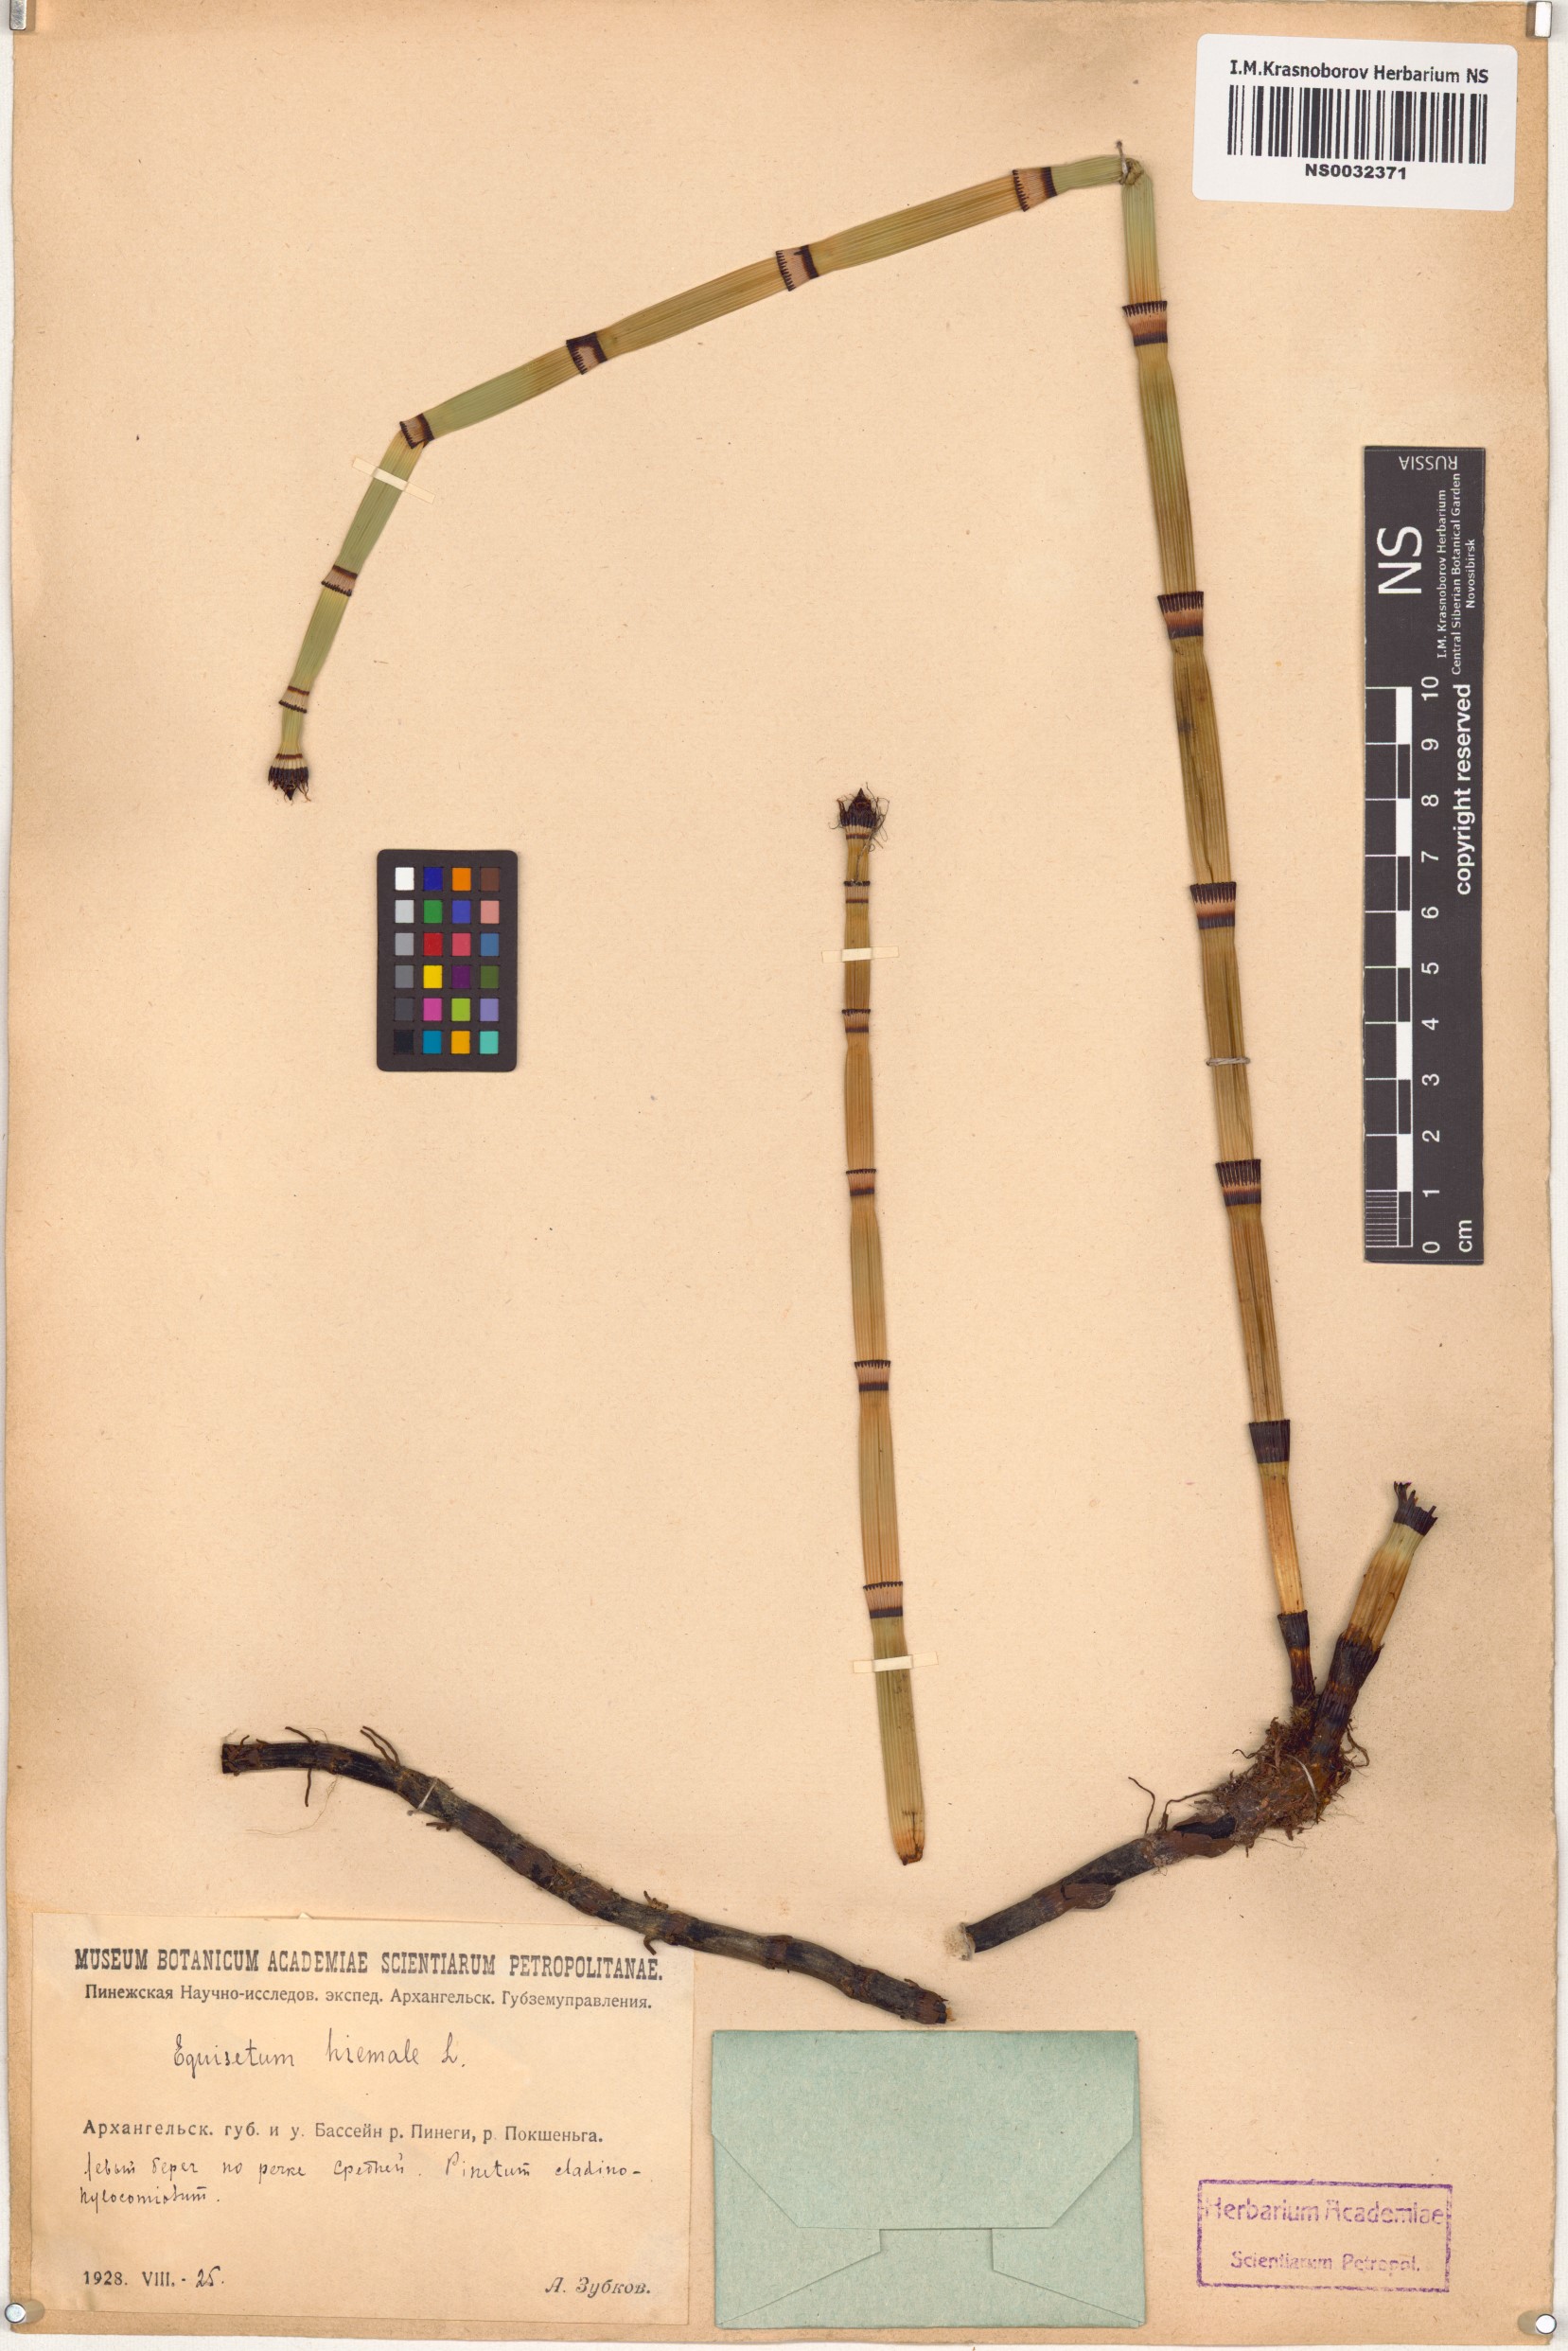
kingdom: Plantae
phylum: Tracheophyta
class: Polypodiopsida
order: Equisetales
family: Equisetaceae
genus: Equisetum
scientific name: Equisetum hyemale
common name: Rough horsetail
